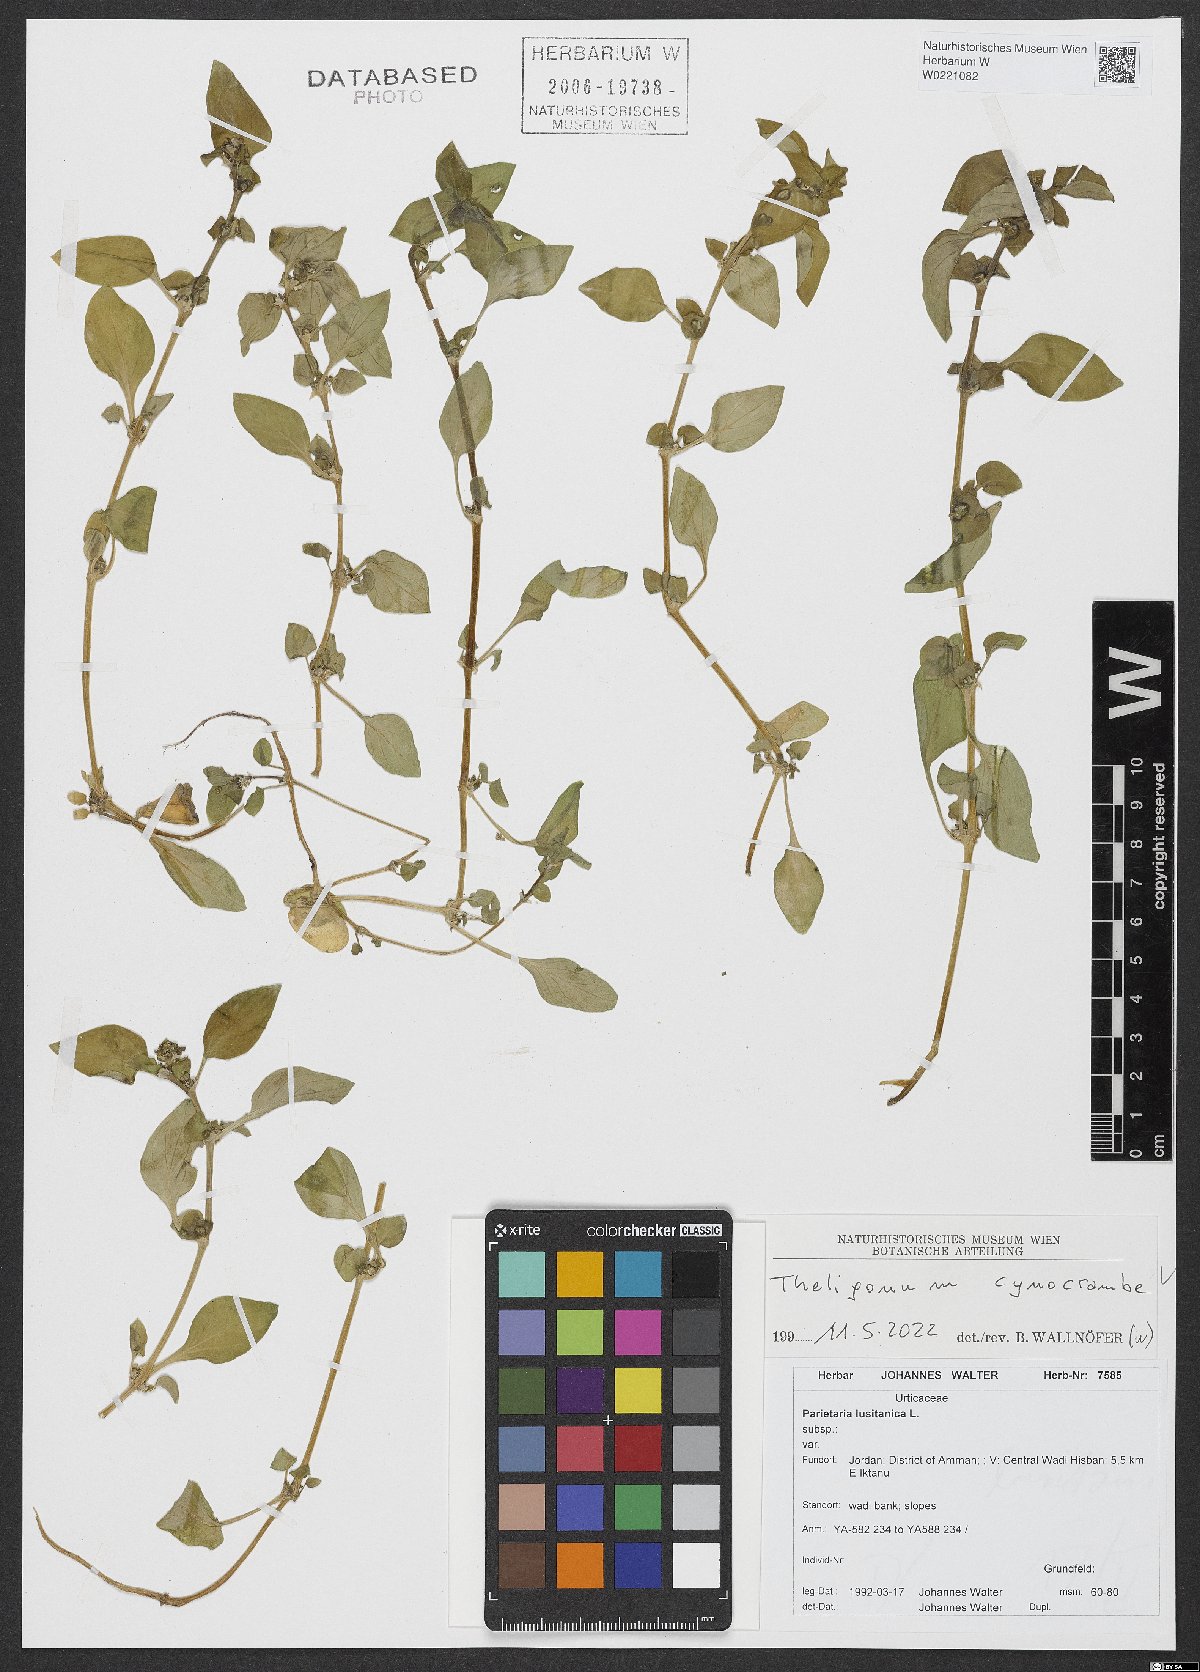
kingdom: Plantae
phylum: Tracheophyta
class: Magnoliopsida
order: Gentianales
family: Rubiaceae
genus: Theligonum
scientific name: Theligonum cynocrambe
